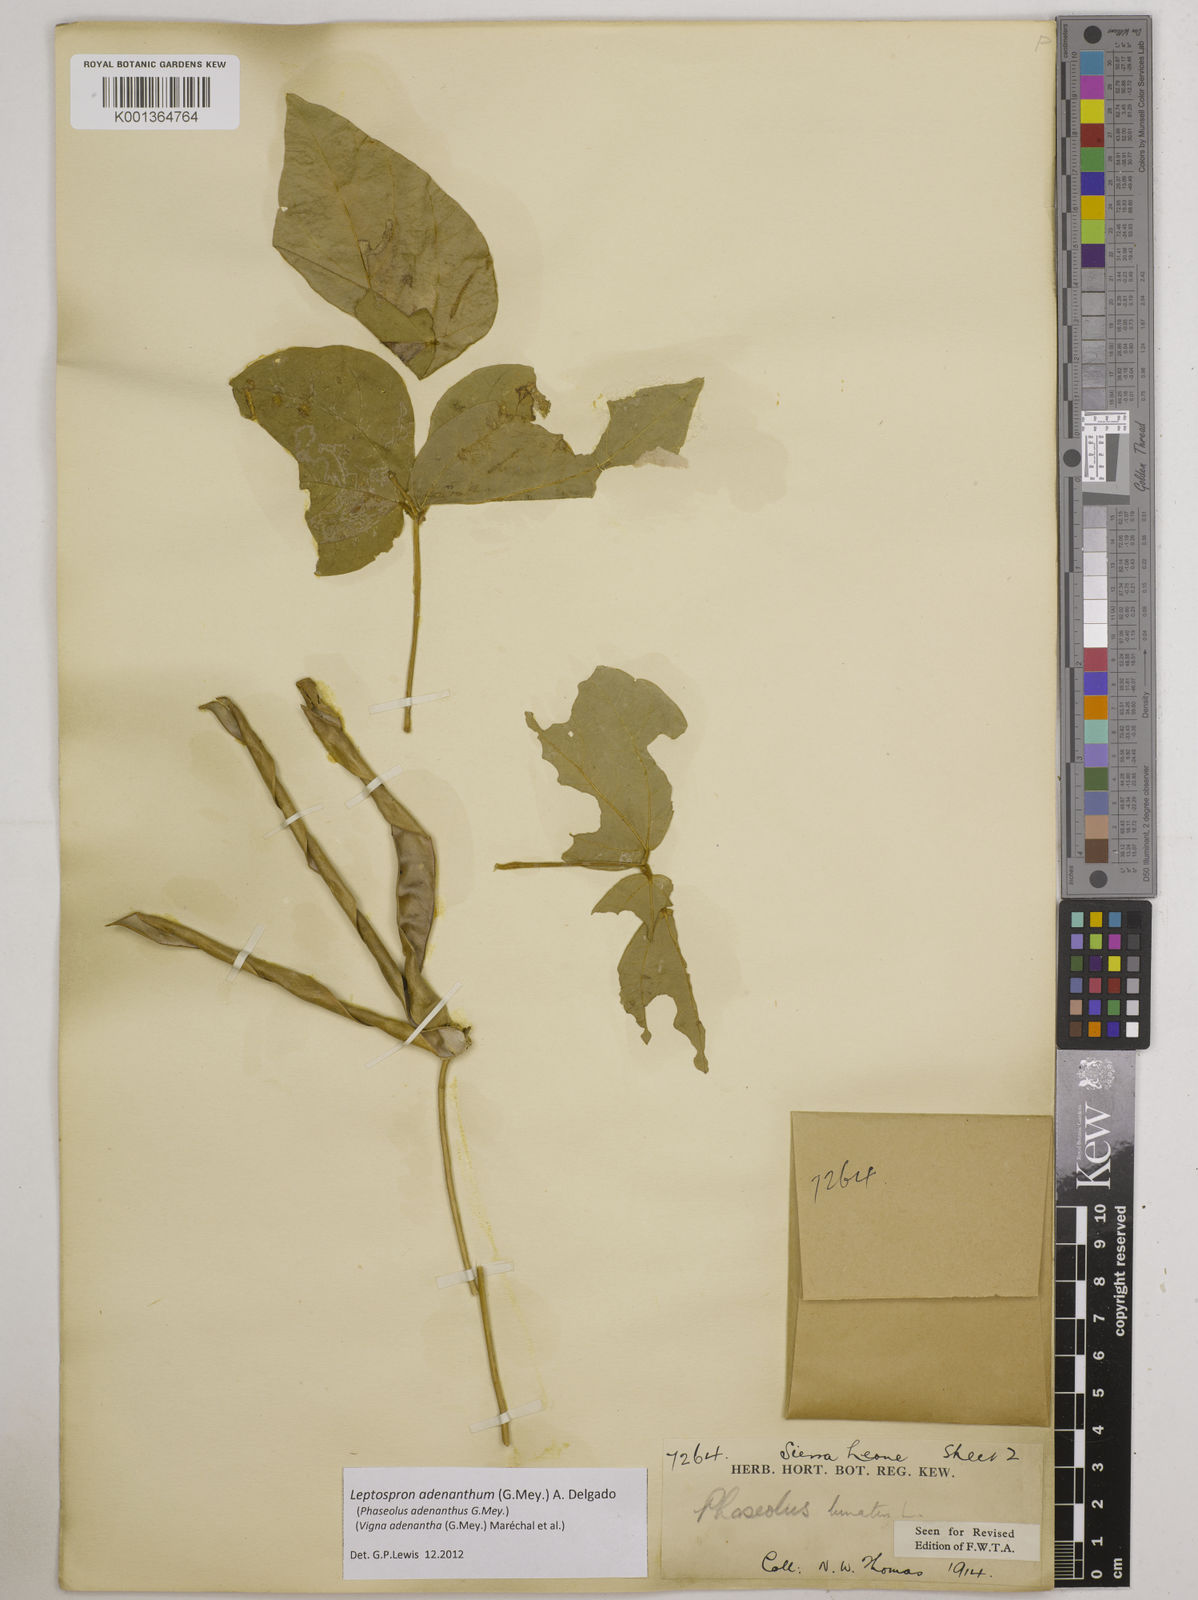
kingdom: Plantae
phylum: Tracheophyta
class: Magnoliopsida
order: Fabales
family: Fabaceae
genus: Leptospron
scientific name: Leptospron adenanthum
